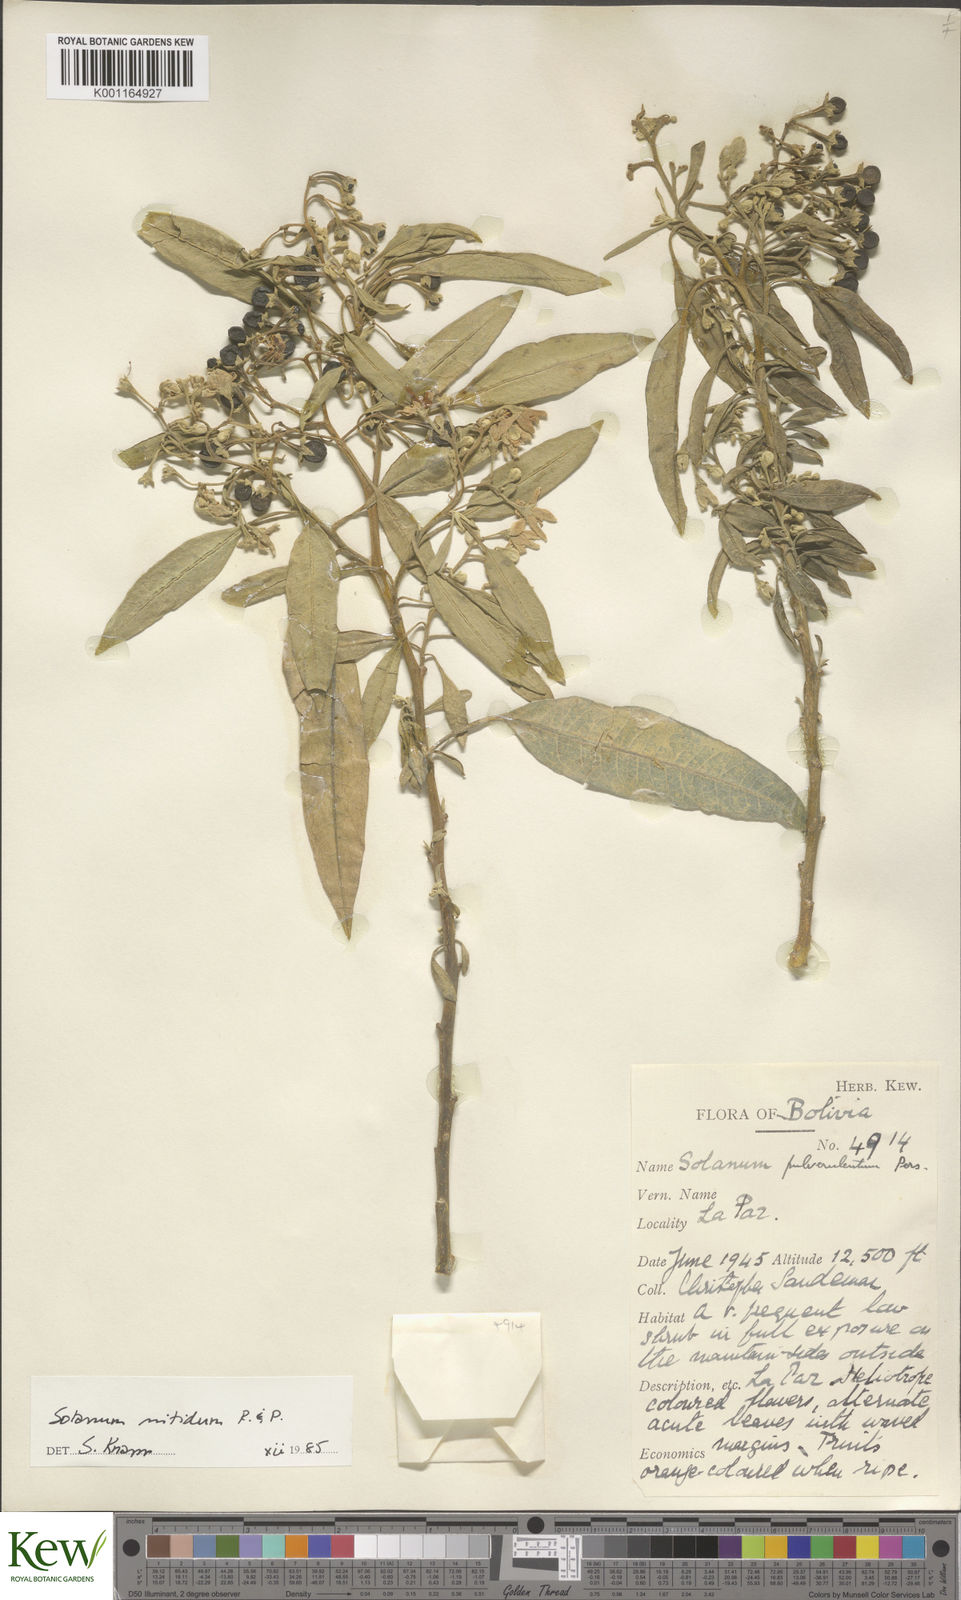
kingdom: Plantae
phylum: Tracheophyta
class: Magnoliopsida
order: Solanales
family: Solanaceae
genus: Solanum
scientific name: Solanum nitidum
